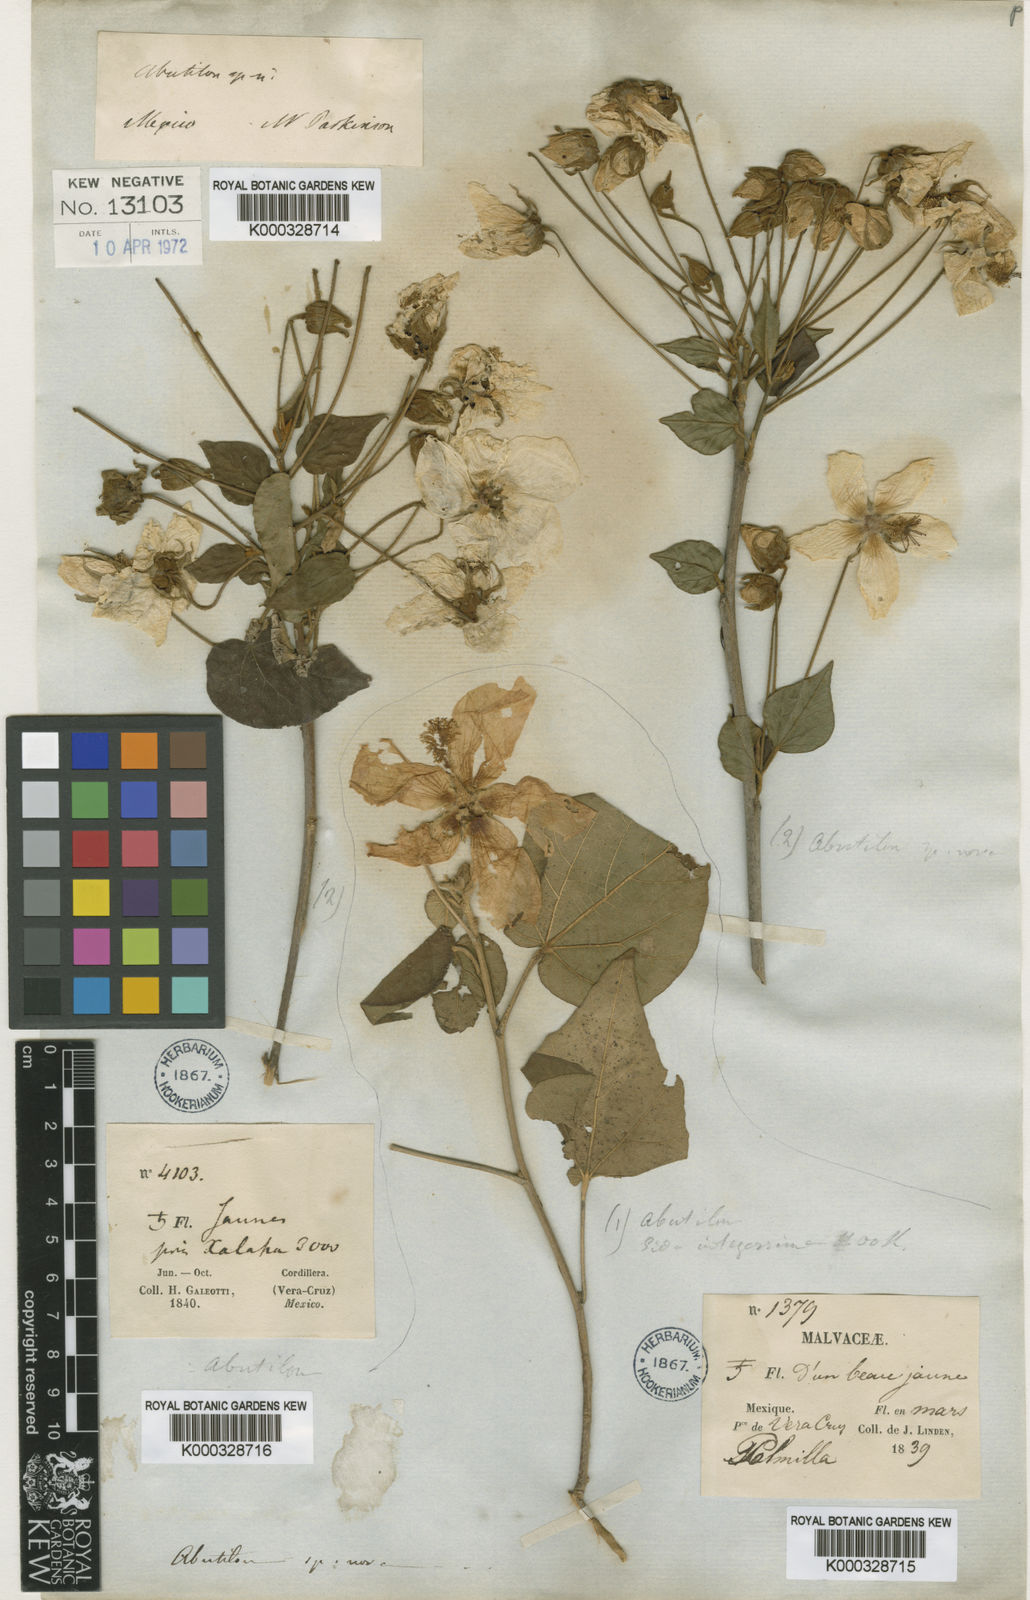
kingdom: Plantae
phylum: Tracheophyta
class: Magnoliopsida
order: Malvales
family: Malvaceae
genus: Bakeridesia
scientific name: Bakeridesia ferruginea
